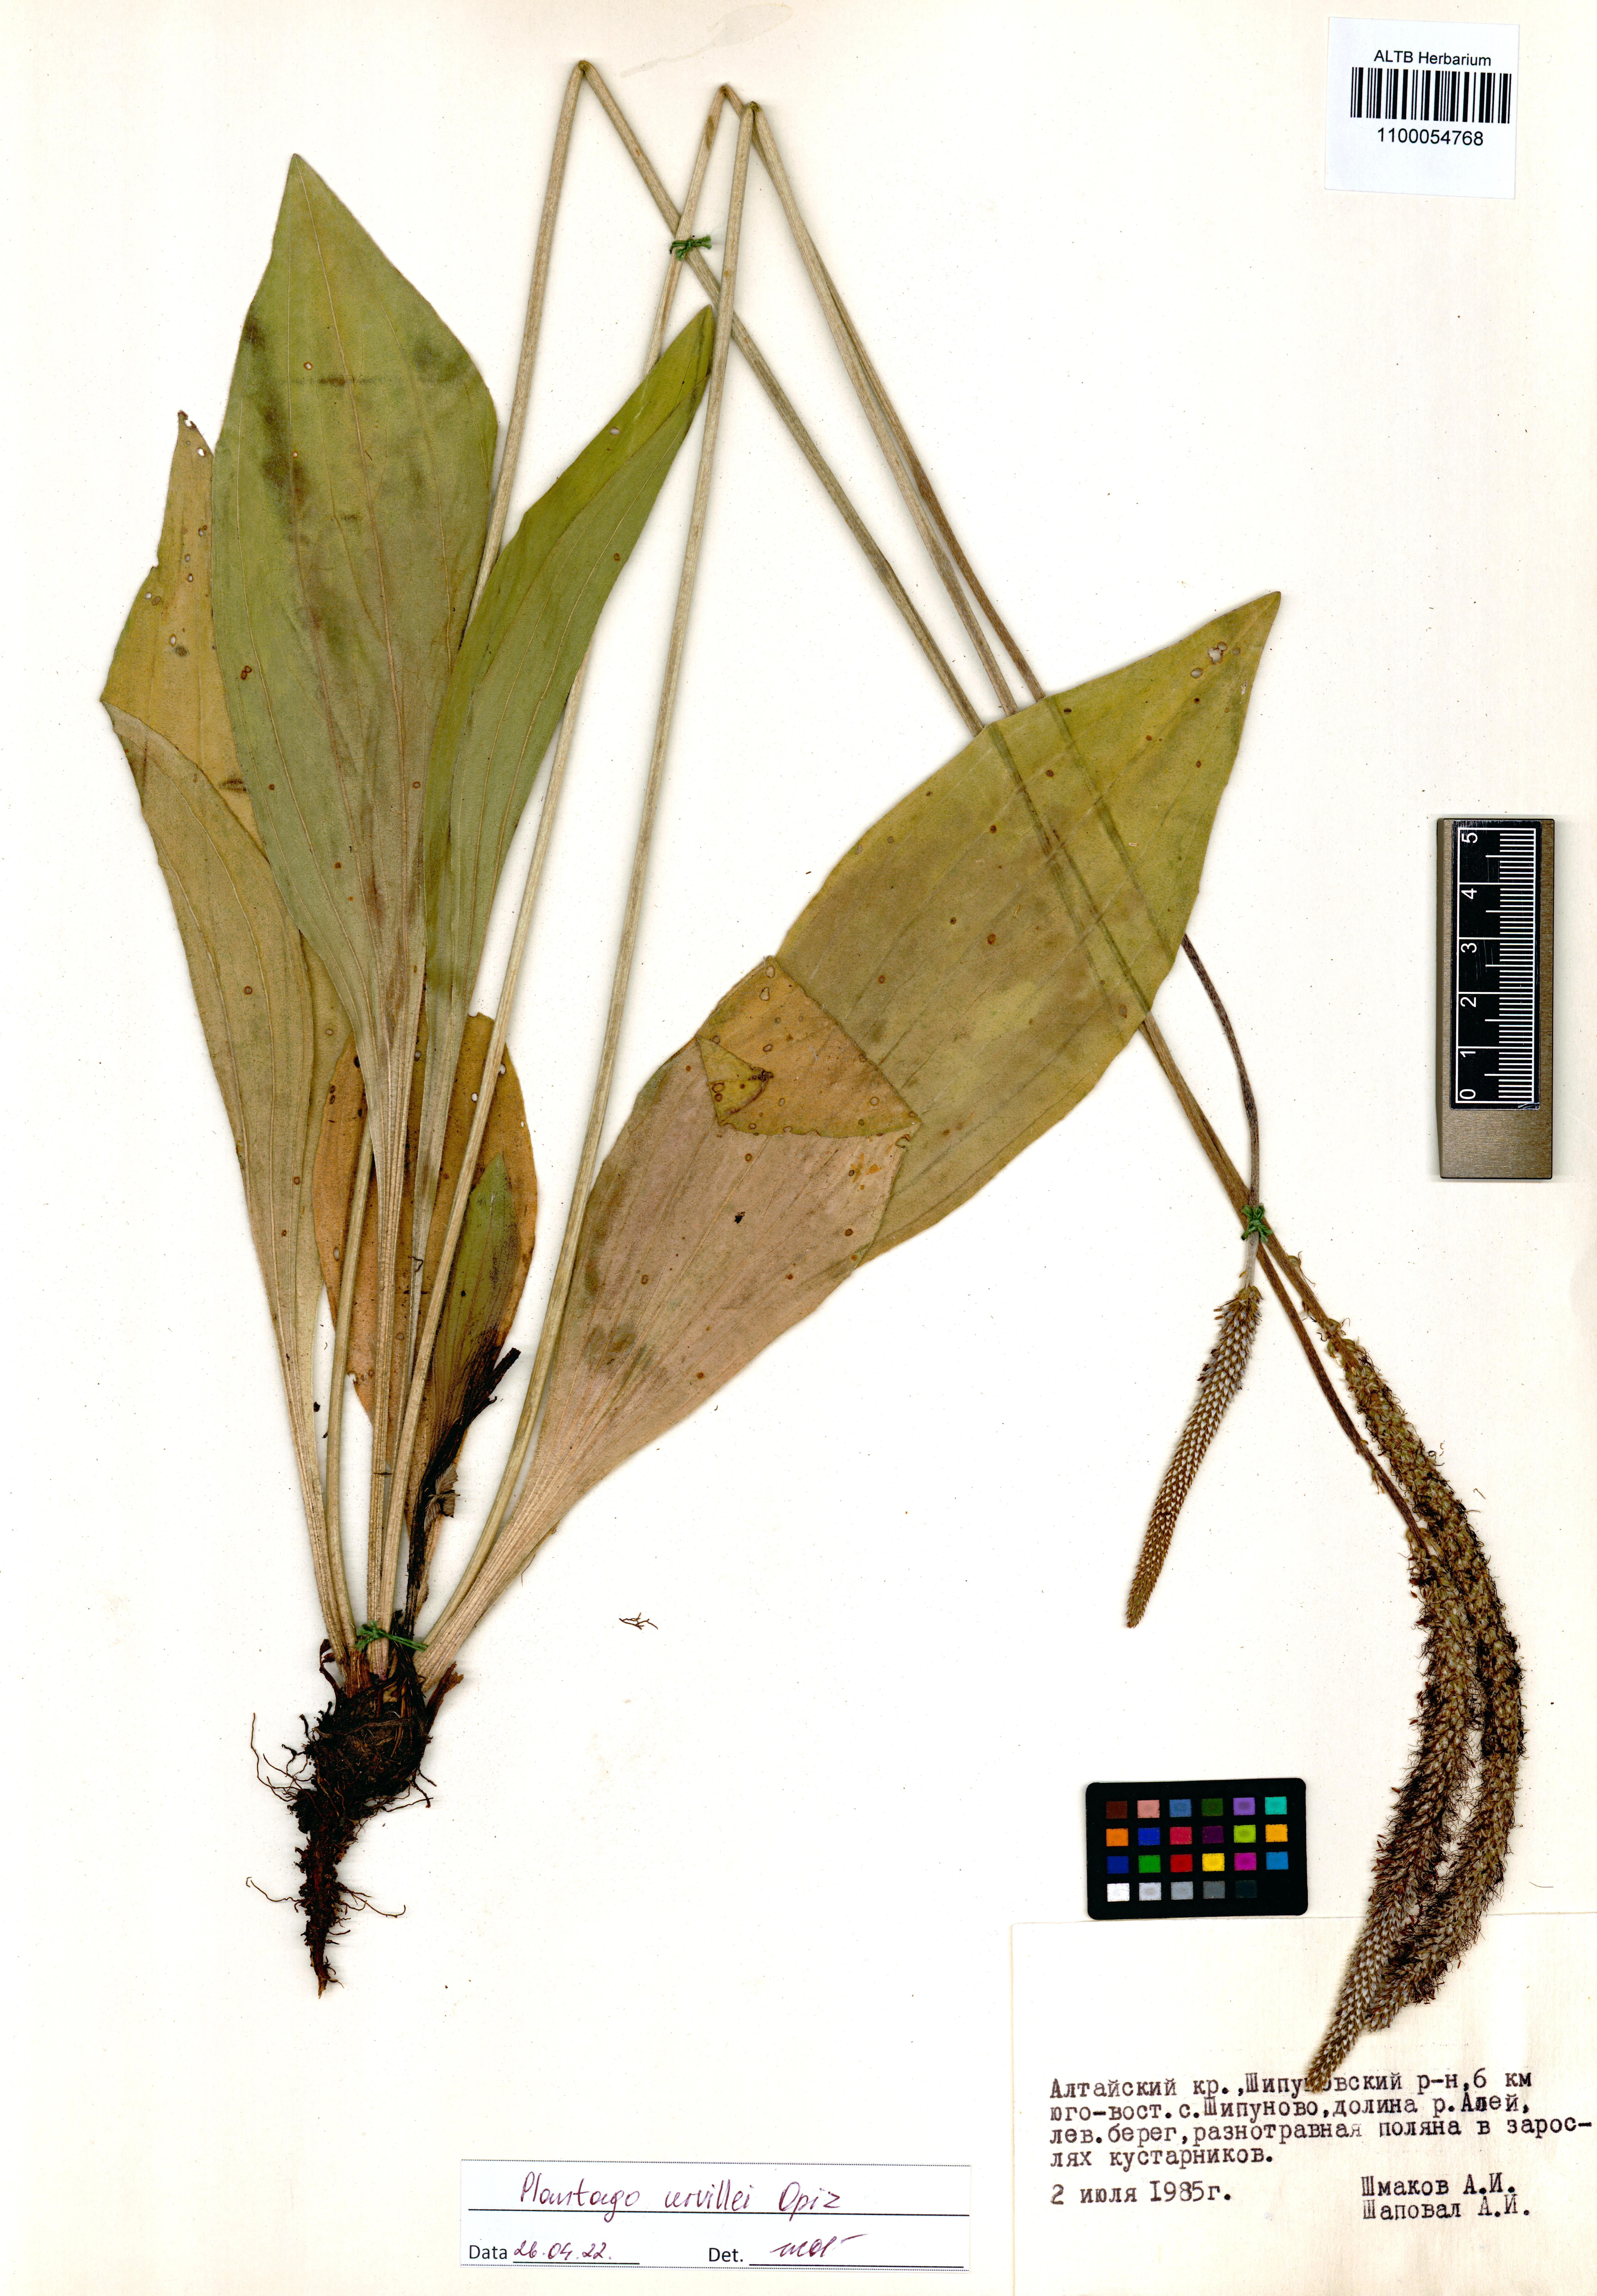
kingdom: Plantae
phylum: Tracheophyta
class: Magnoliopsida
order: Lamiales
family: Plantaginaceae
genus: Plantago
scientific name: Plantago urvillei
